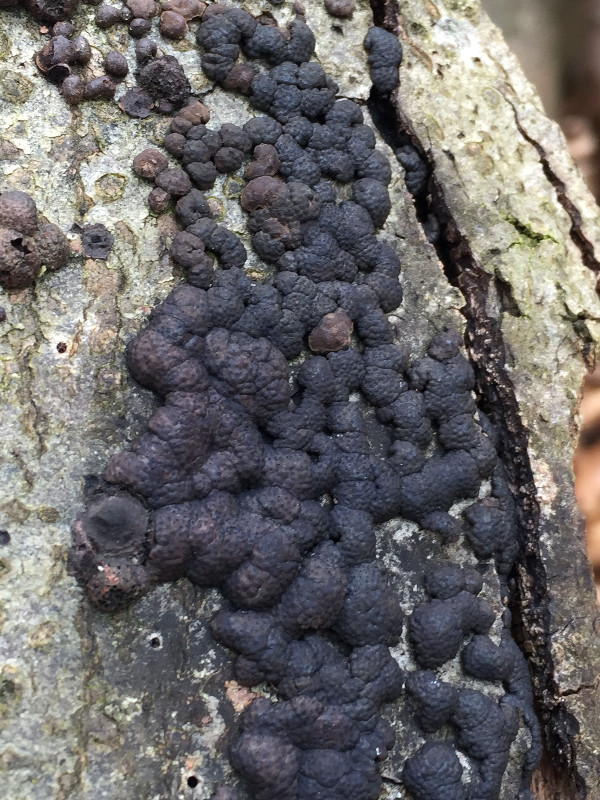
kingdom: Fungi
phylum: Ascomycota
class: Sordariomycetes
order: Xylariales
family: Hypoxylaceae
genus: Jackrogersella
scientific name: Jackrogersella cohaerens
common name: sammenflydende kulbær
